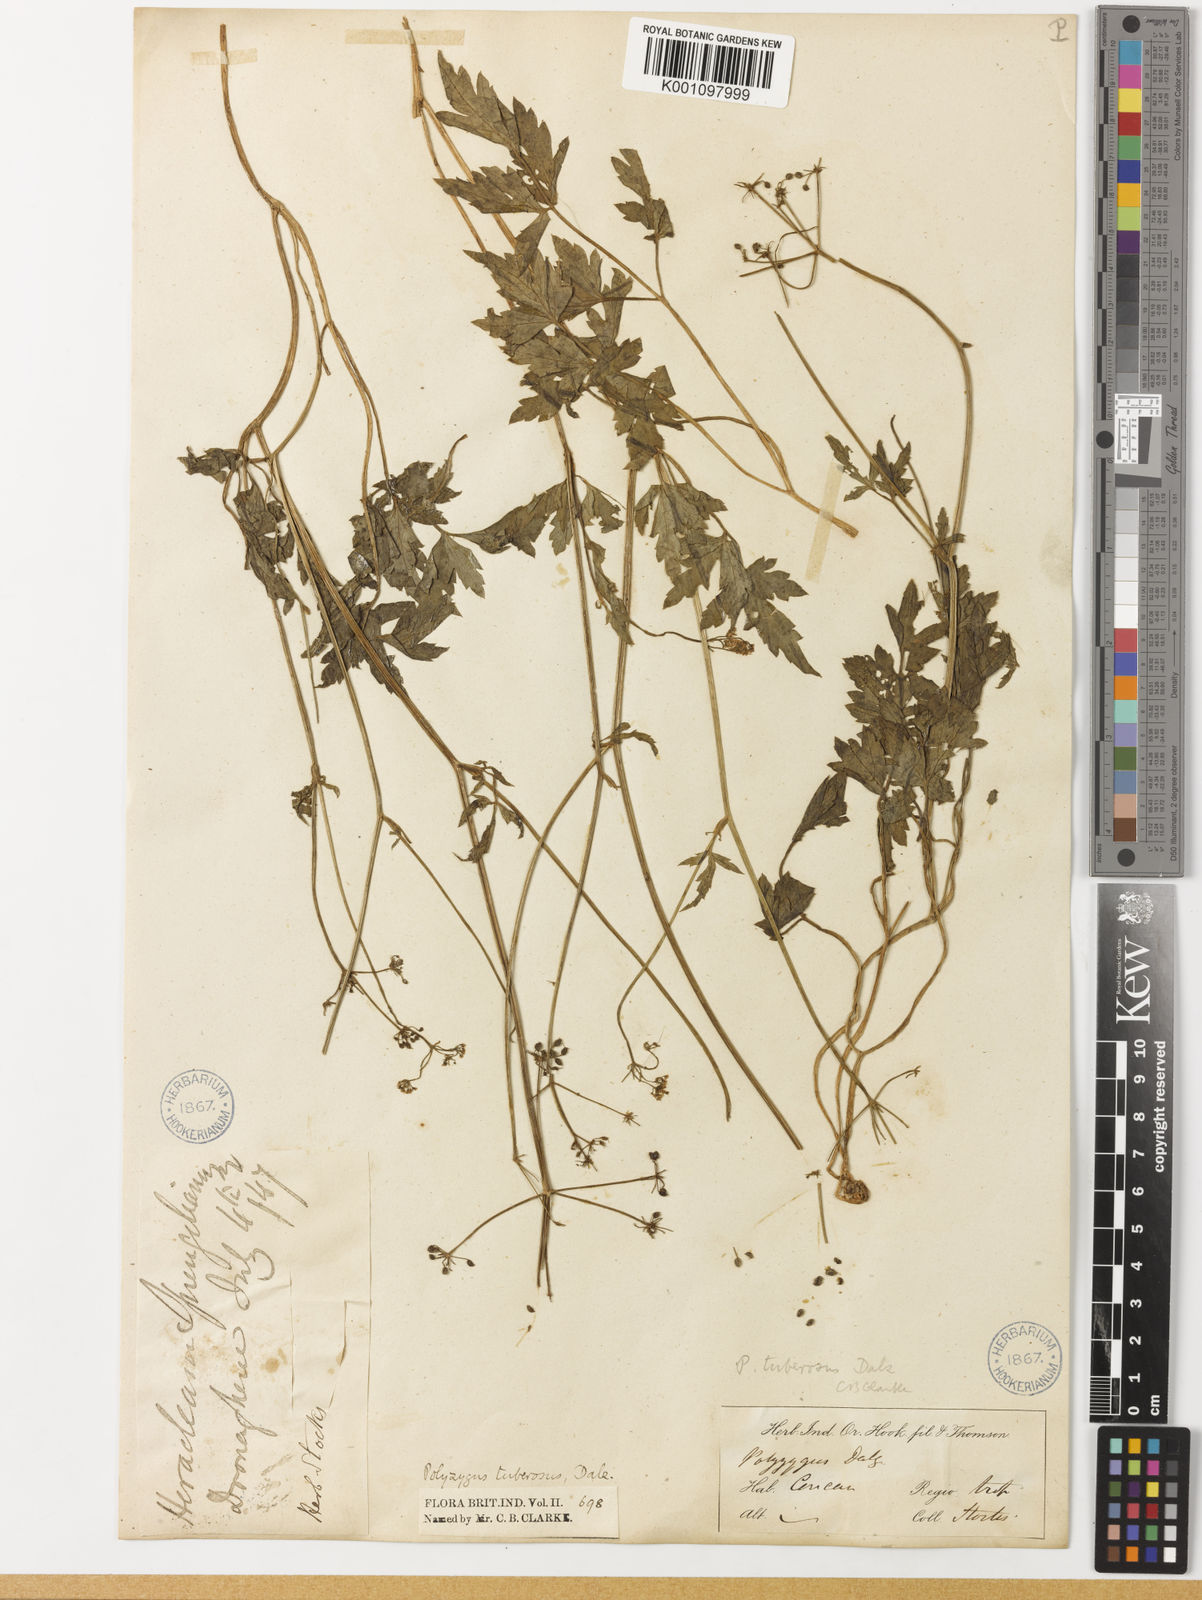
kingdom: Plantae
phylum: Tracheophyta
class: Magnoliopsida
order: Apiales
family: Apiaceae
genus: Polyzygus
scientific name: Polyzygus
